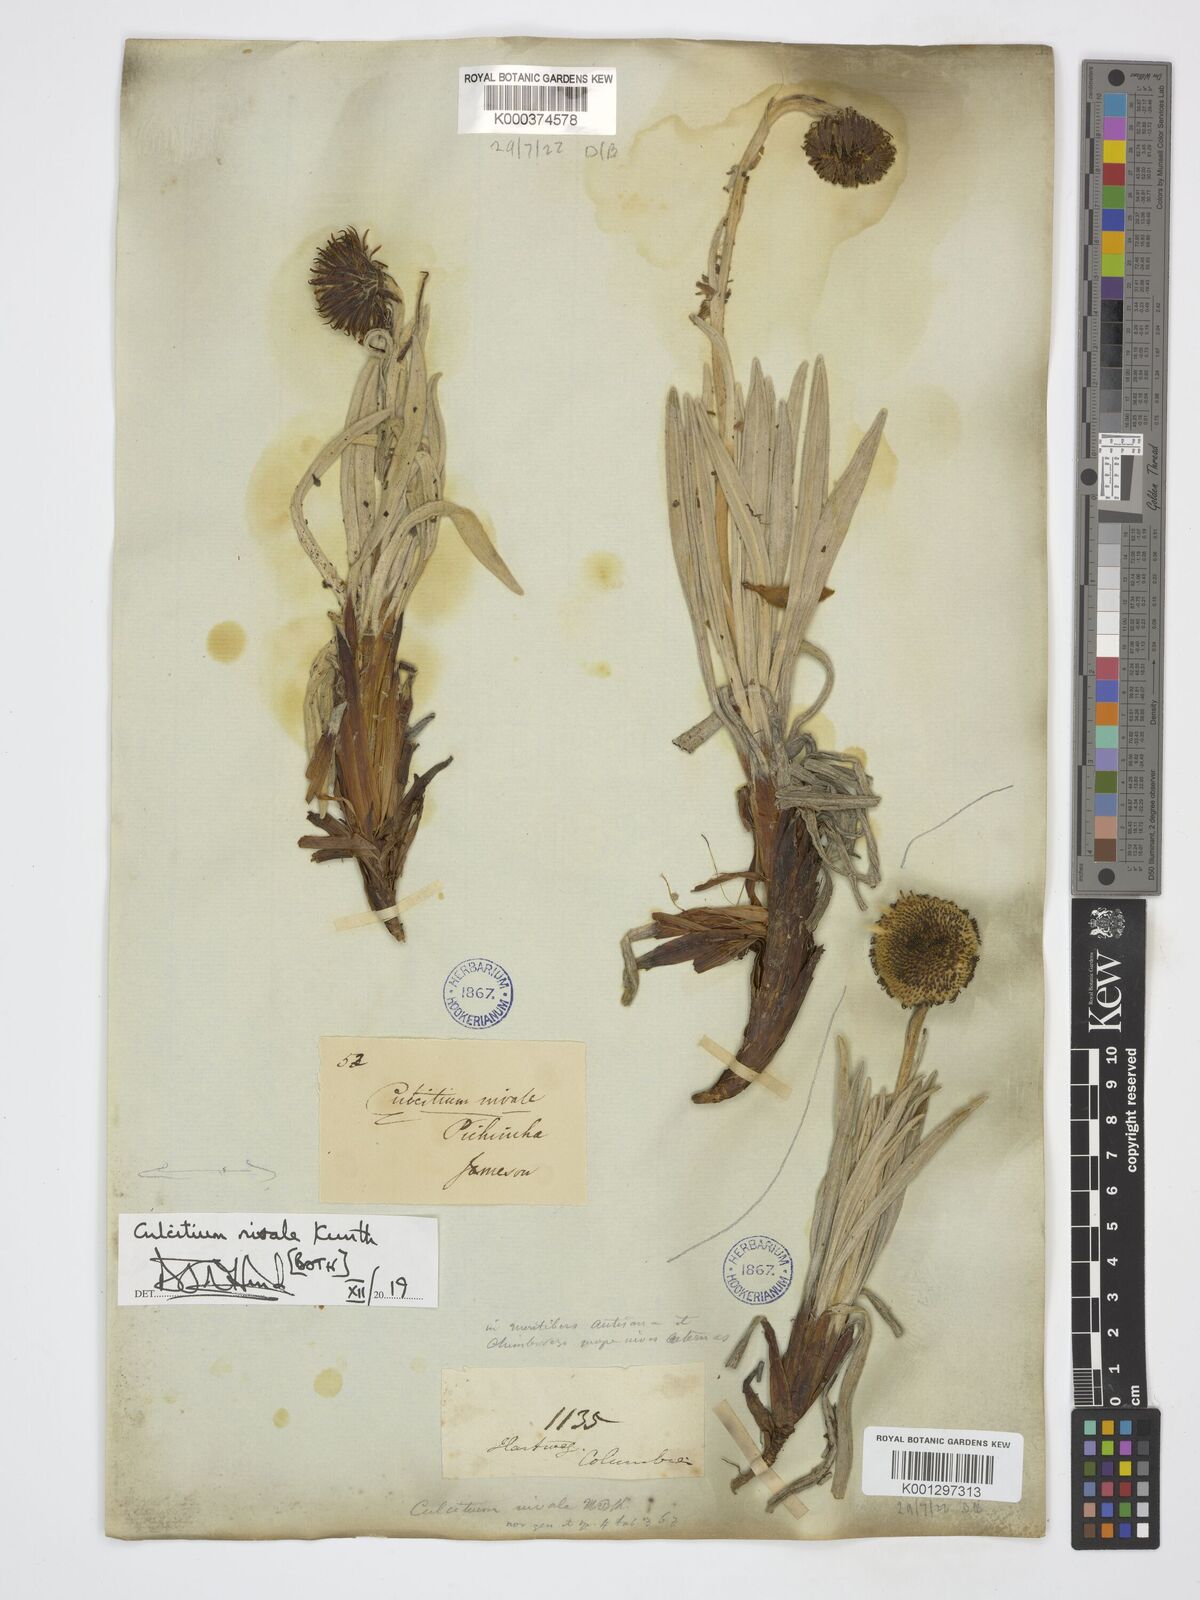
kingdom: Plantae
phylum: Tracheophyta
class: Magnoliopsida
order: Asterales
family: Asteraceae
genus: Culcitium
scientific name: Culcitium nivale
